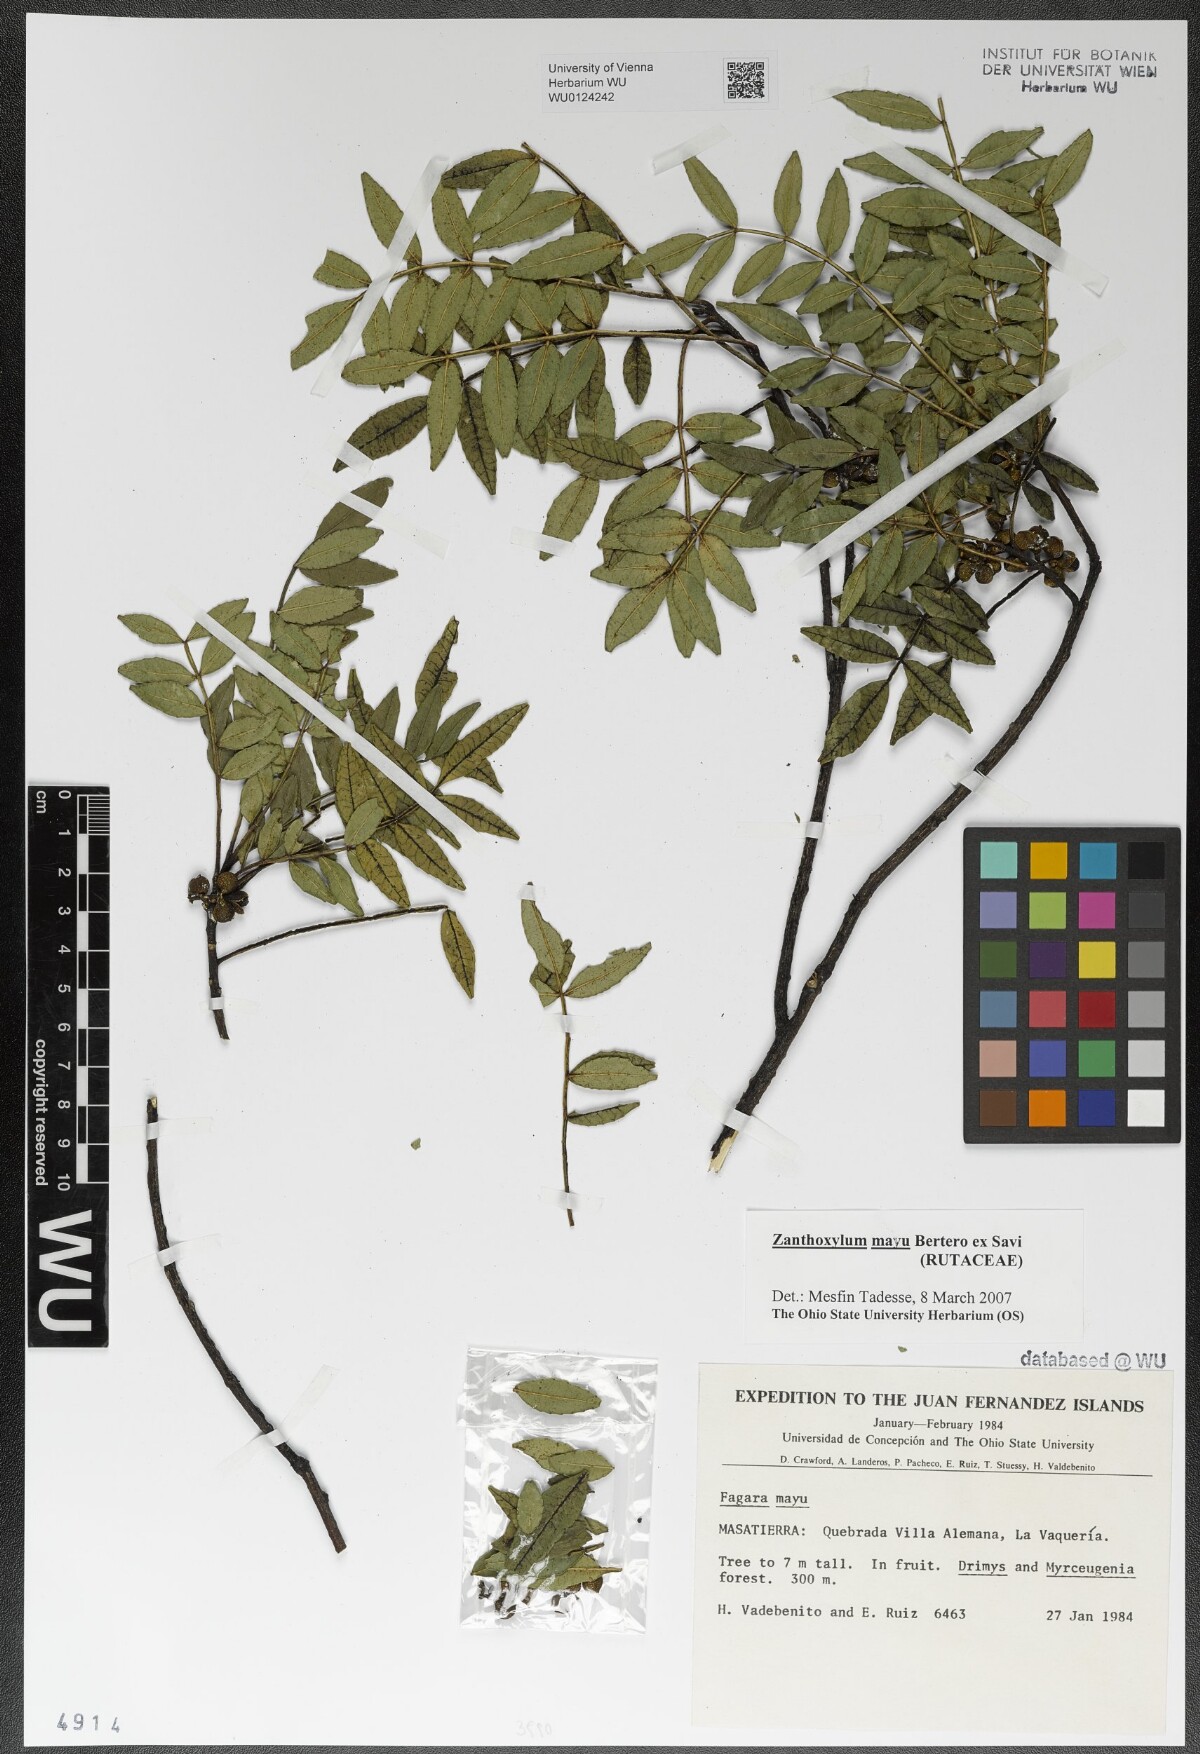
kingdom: Plantae
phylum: Tracheophyta
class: Magnoliopsida
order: Sapindales
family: Rutaceae
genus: Zanthoxylum
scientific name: Zanthoxylum mayu
